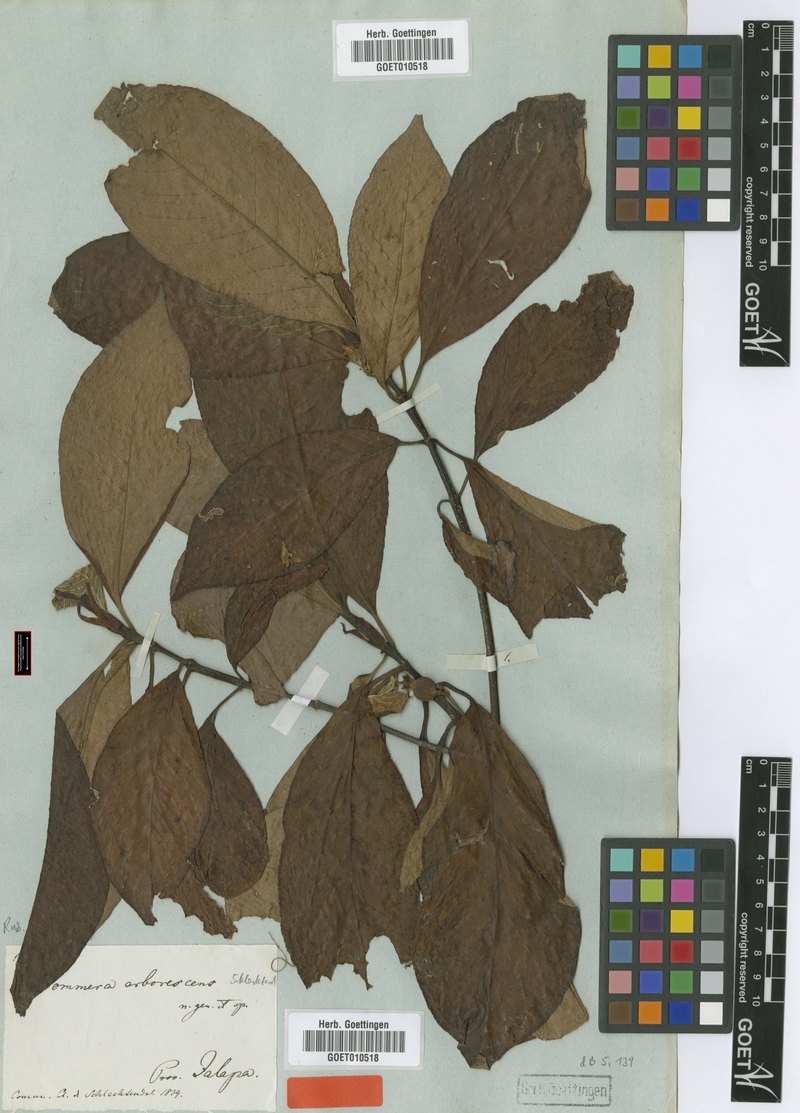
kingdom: Plantae
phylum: Tracheophyta
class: Magnoliopsida
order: Gentianales
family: Rubiaceae
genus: Sommera
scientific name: Sommera arborescens
